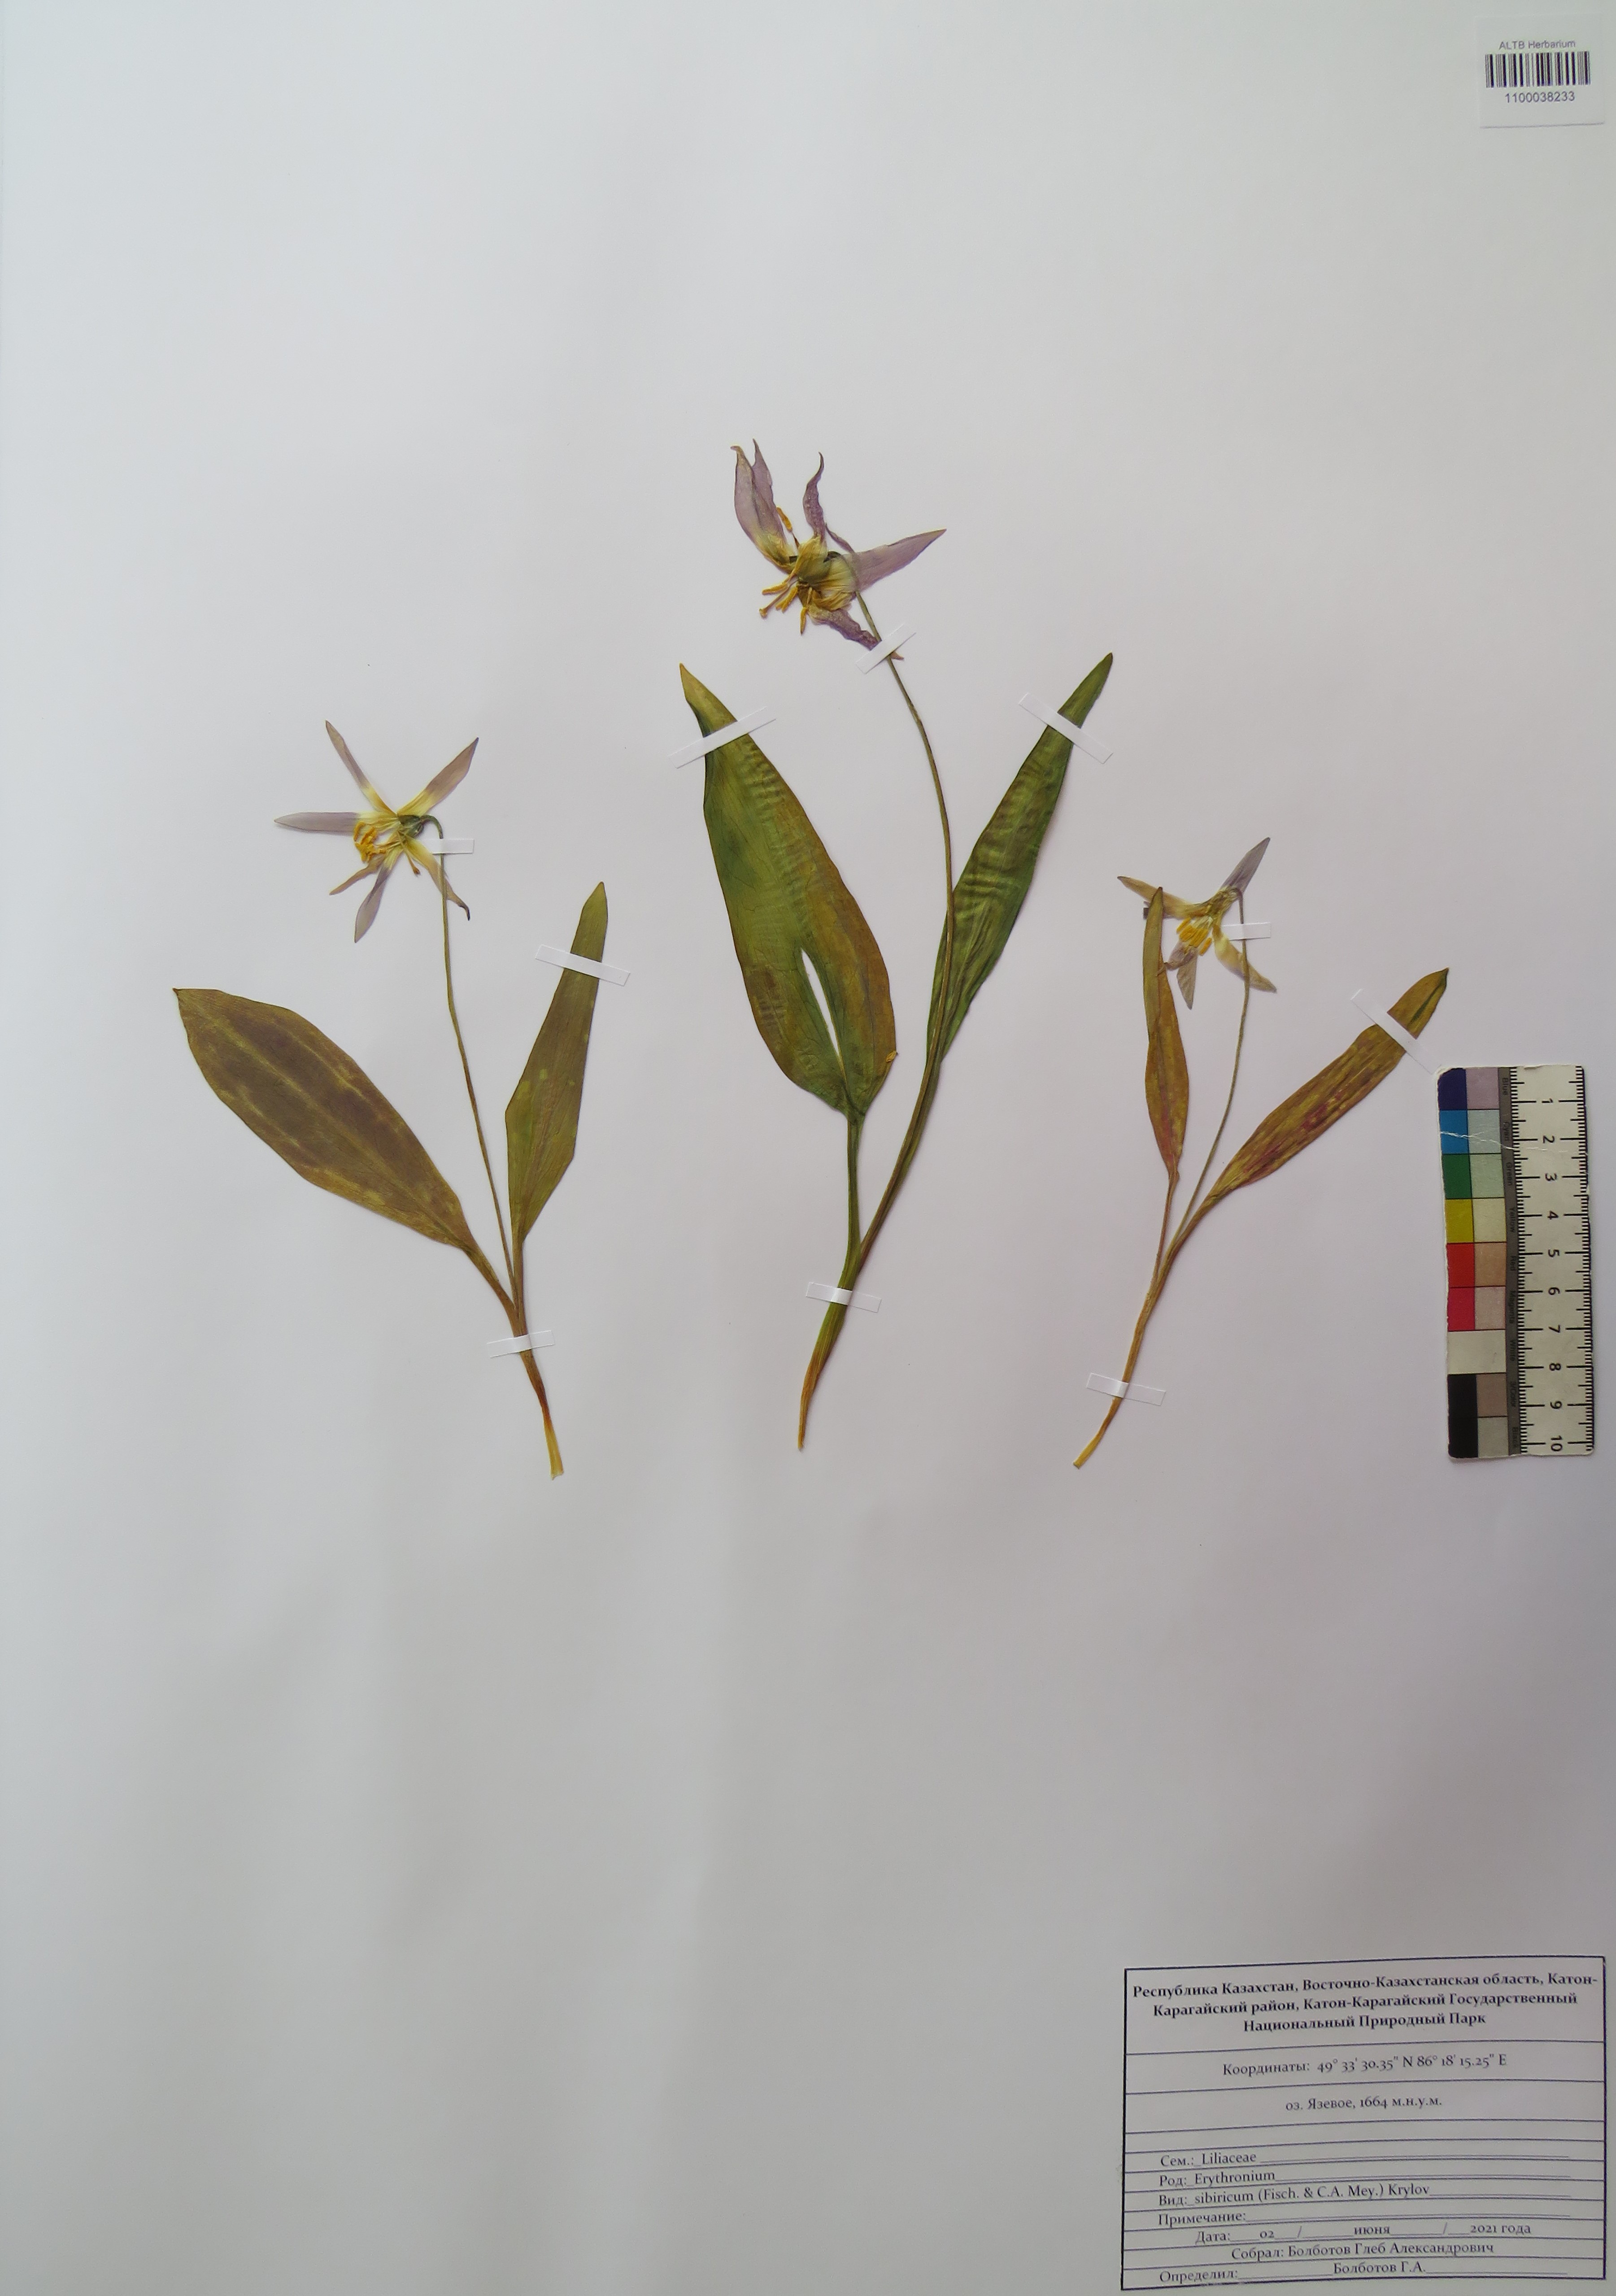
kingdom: Plantae
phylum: Tracheophyta
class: Liliopsida
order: Liliales
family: Liliaceae
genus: Erythronium
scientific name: Erythronium sibiricum
